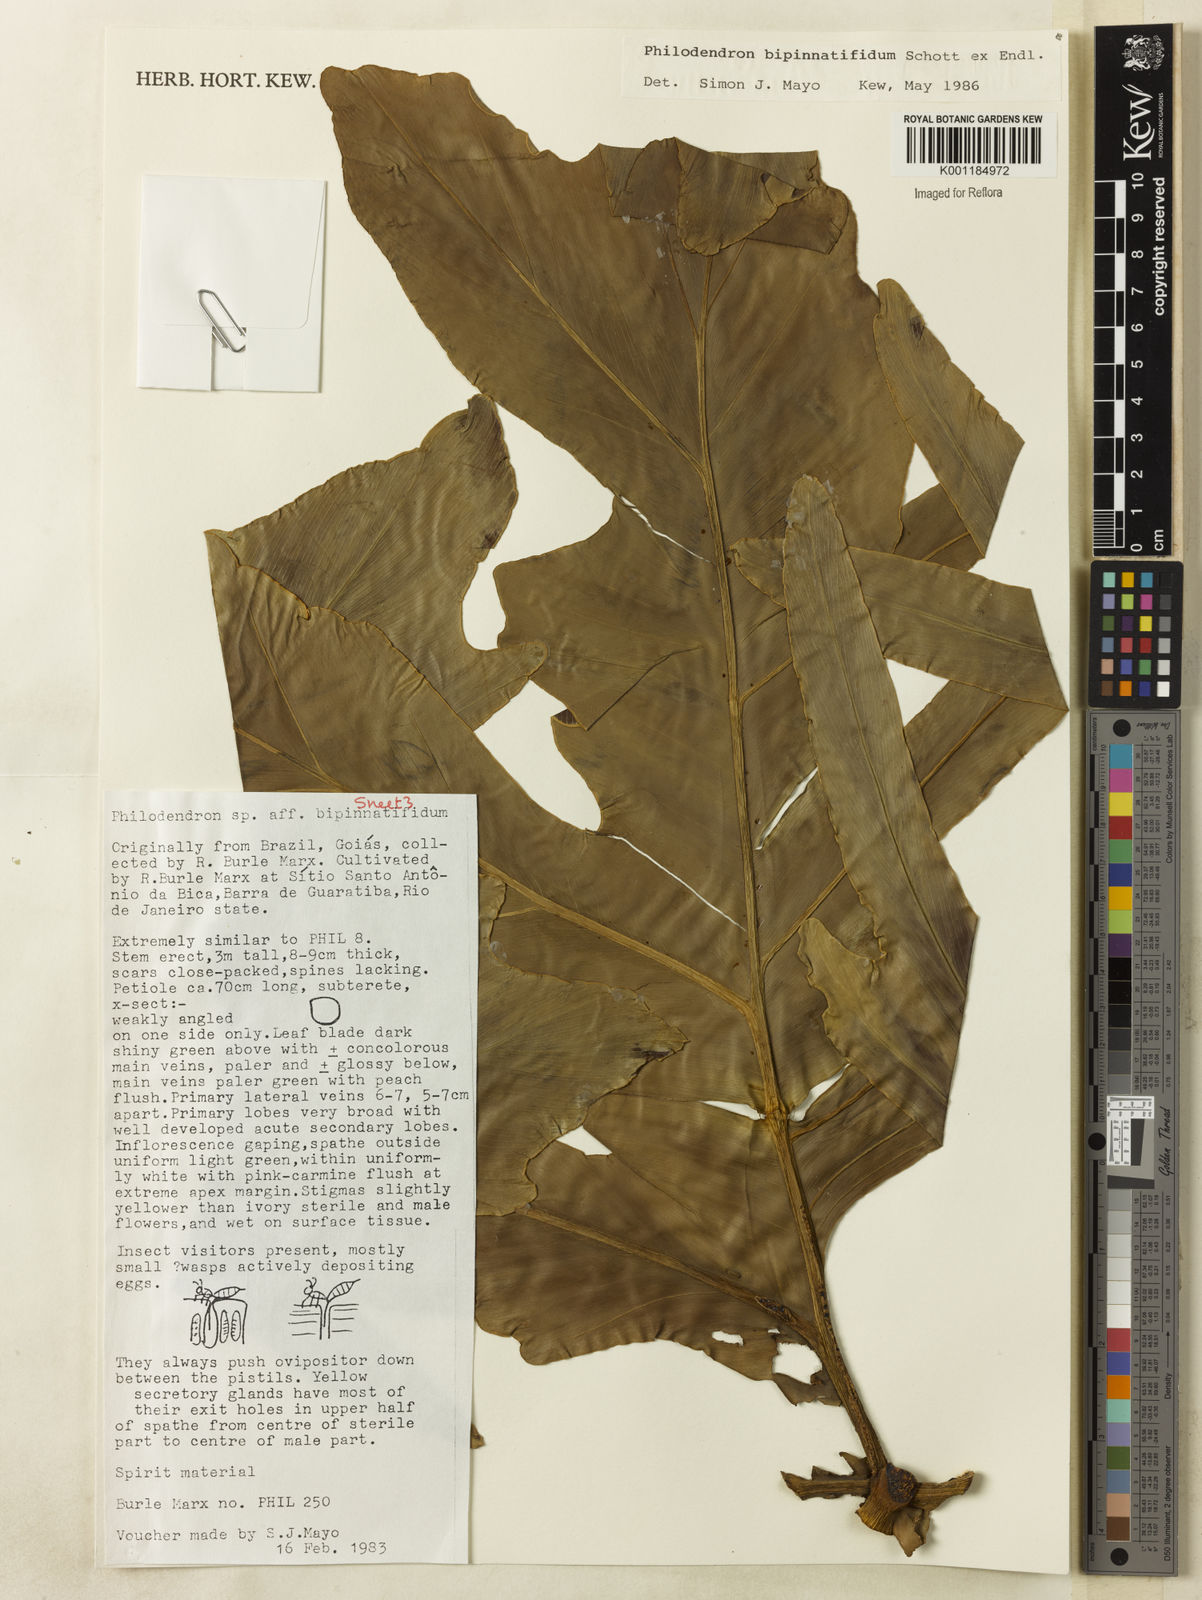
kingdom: Plantae
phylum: Tracheophyta
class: Liliopsida
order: Alismatales
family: Araceae
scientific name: Araceae
